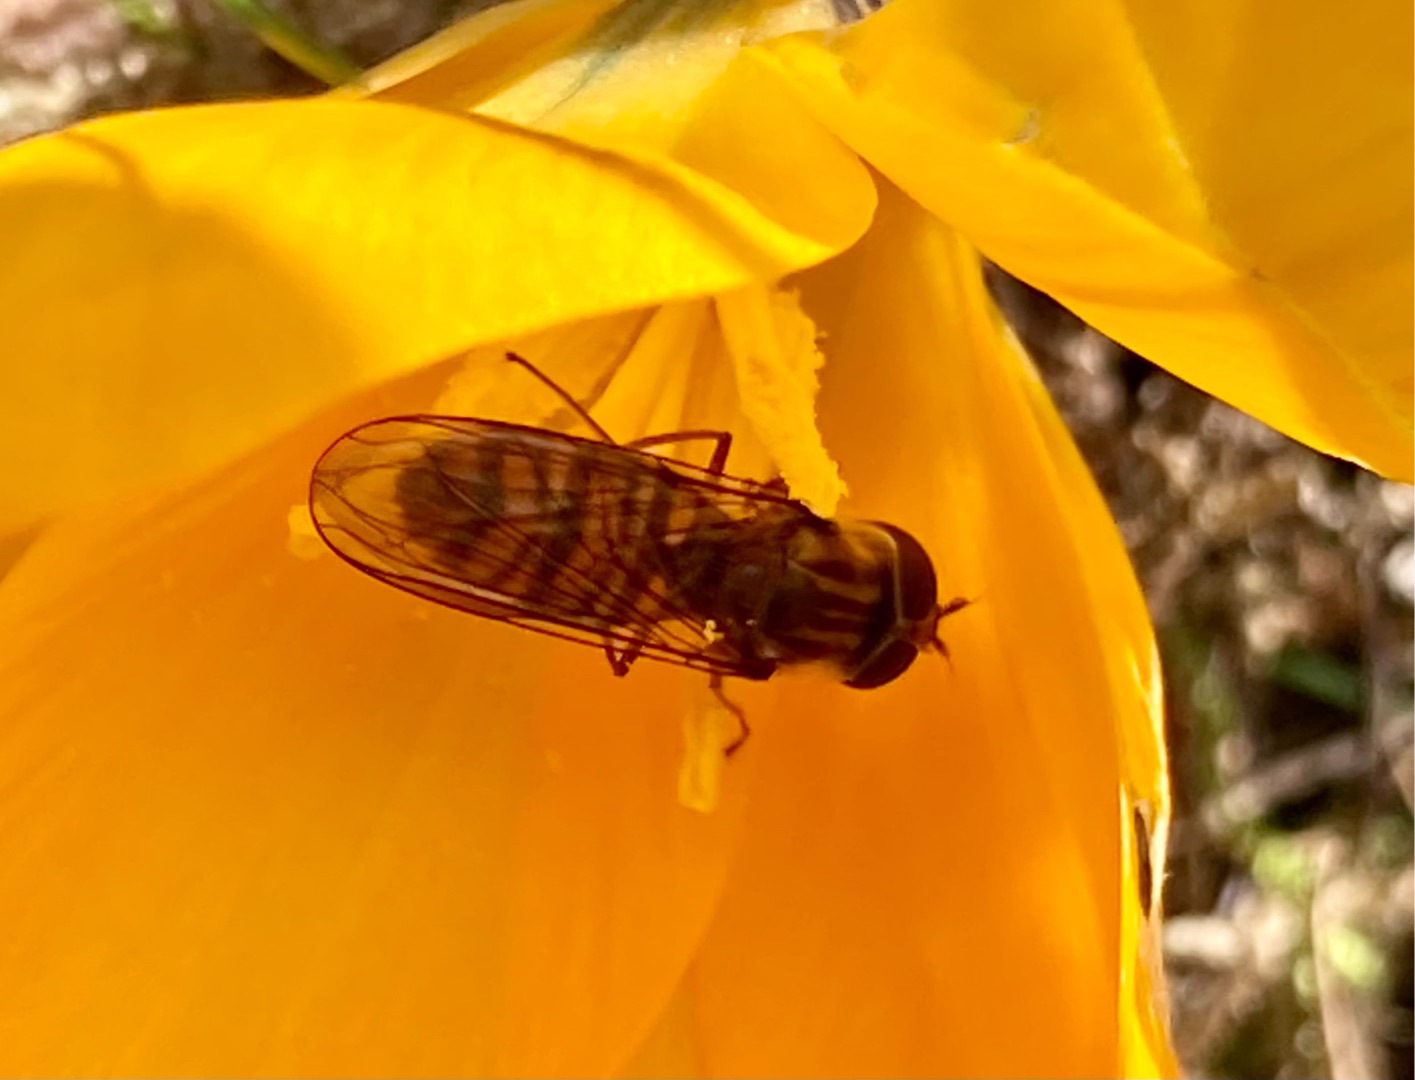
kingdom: Animalia
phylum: Arthropoda
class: Insecta
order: Diptera
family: Syrphidae
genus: Episyrphus
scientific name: Episyrphus balteatus
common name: Dobbeltbåndet svirreflue
